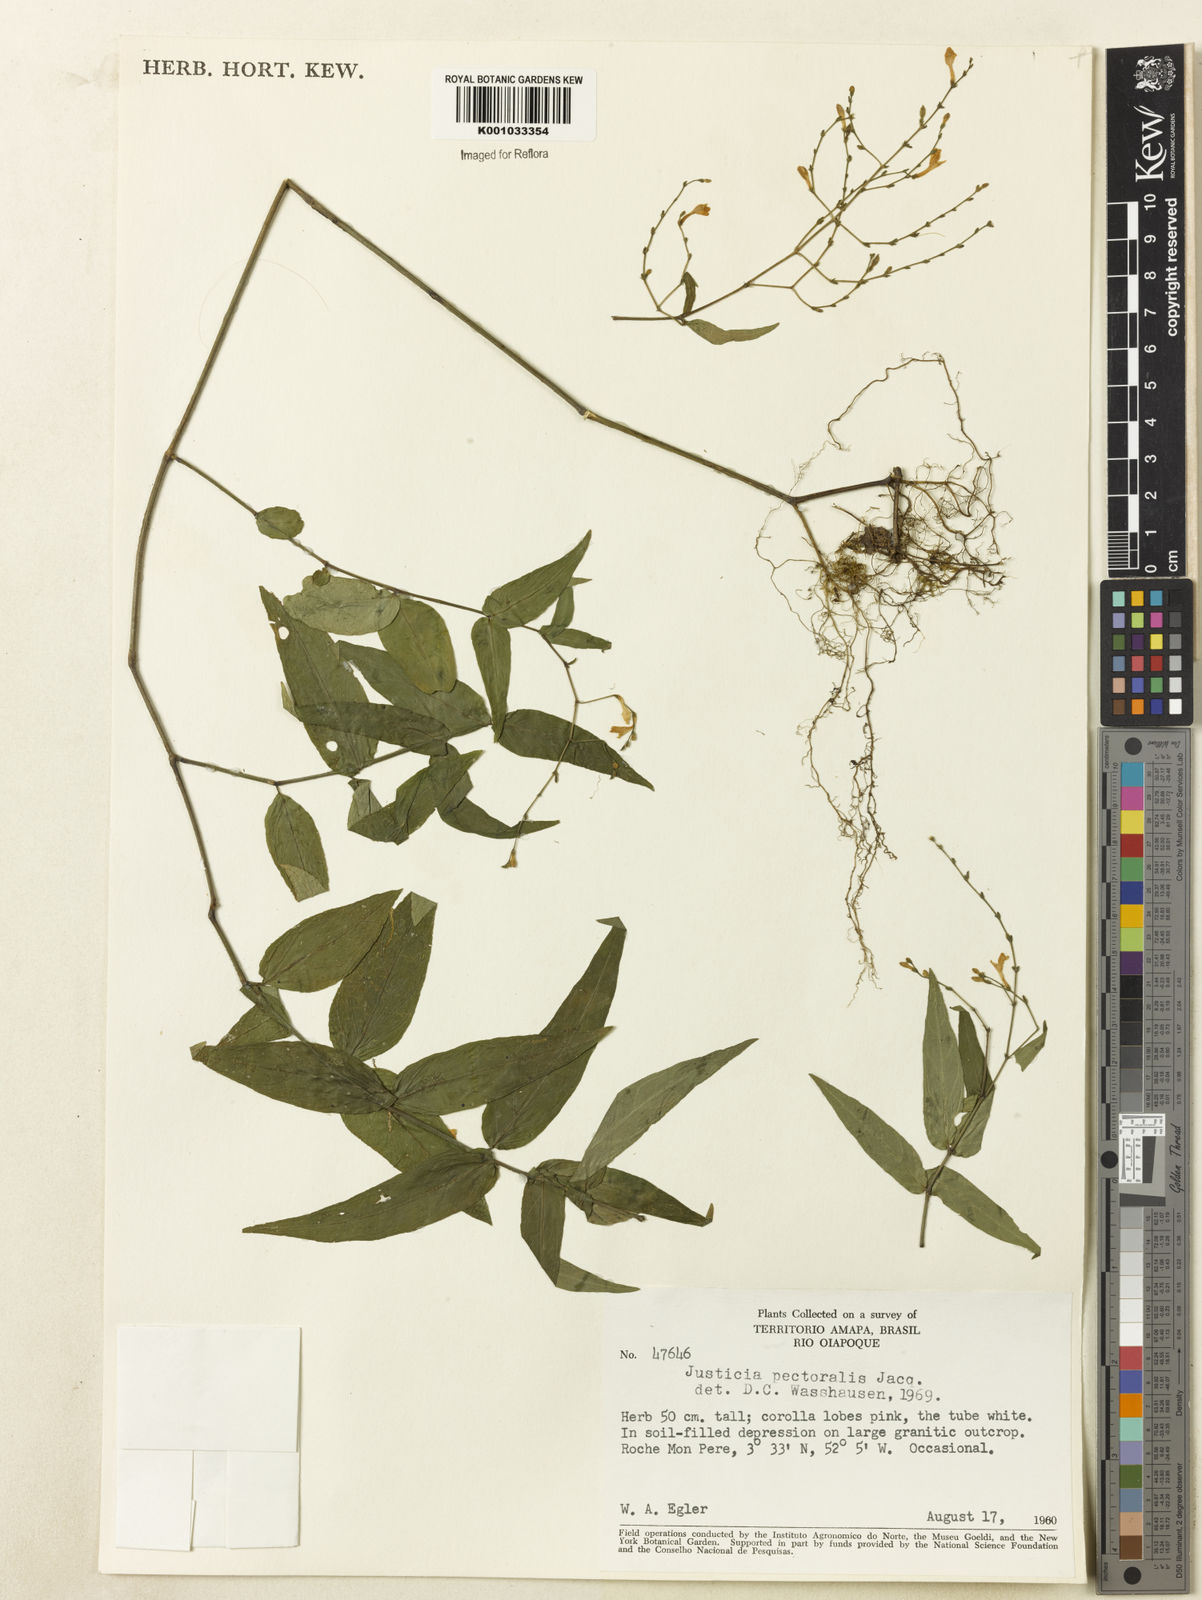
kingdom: Plantae
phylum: Tracheophyta
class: Magnoliopsida
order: Lamiales
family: Acanthaceae
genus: Dianthera
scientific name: Dianthera pectoralis
